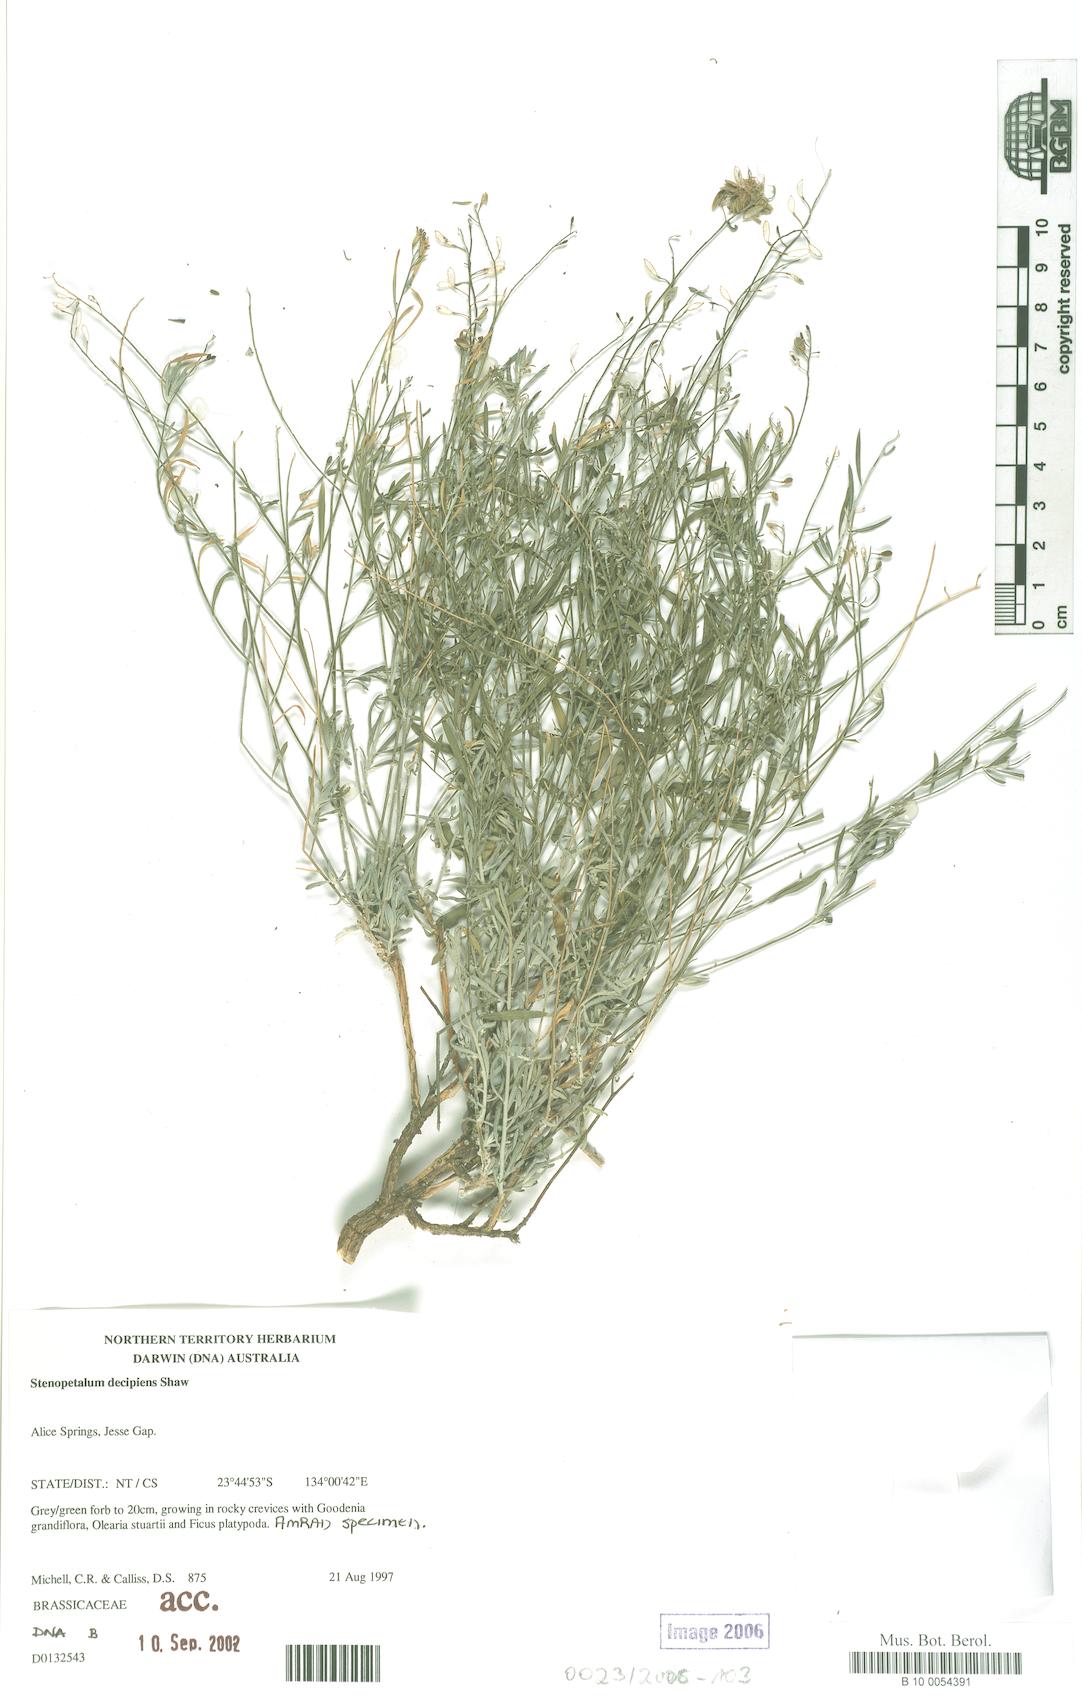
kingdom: Plantae
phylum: Tracheophyta
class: Magnoliopsida
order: Brassicales
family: Brassicaceae
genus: Stenopetalum
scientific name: Stenopetalum decipiens
